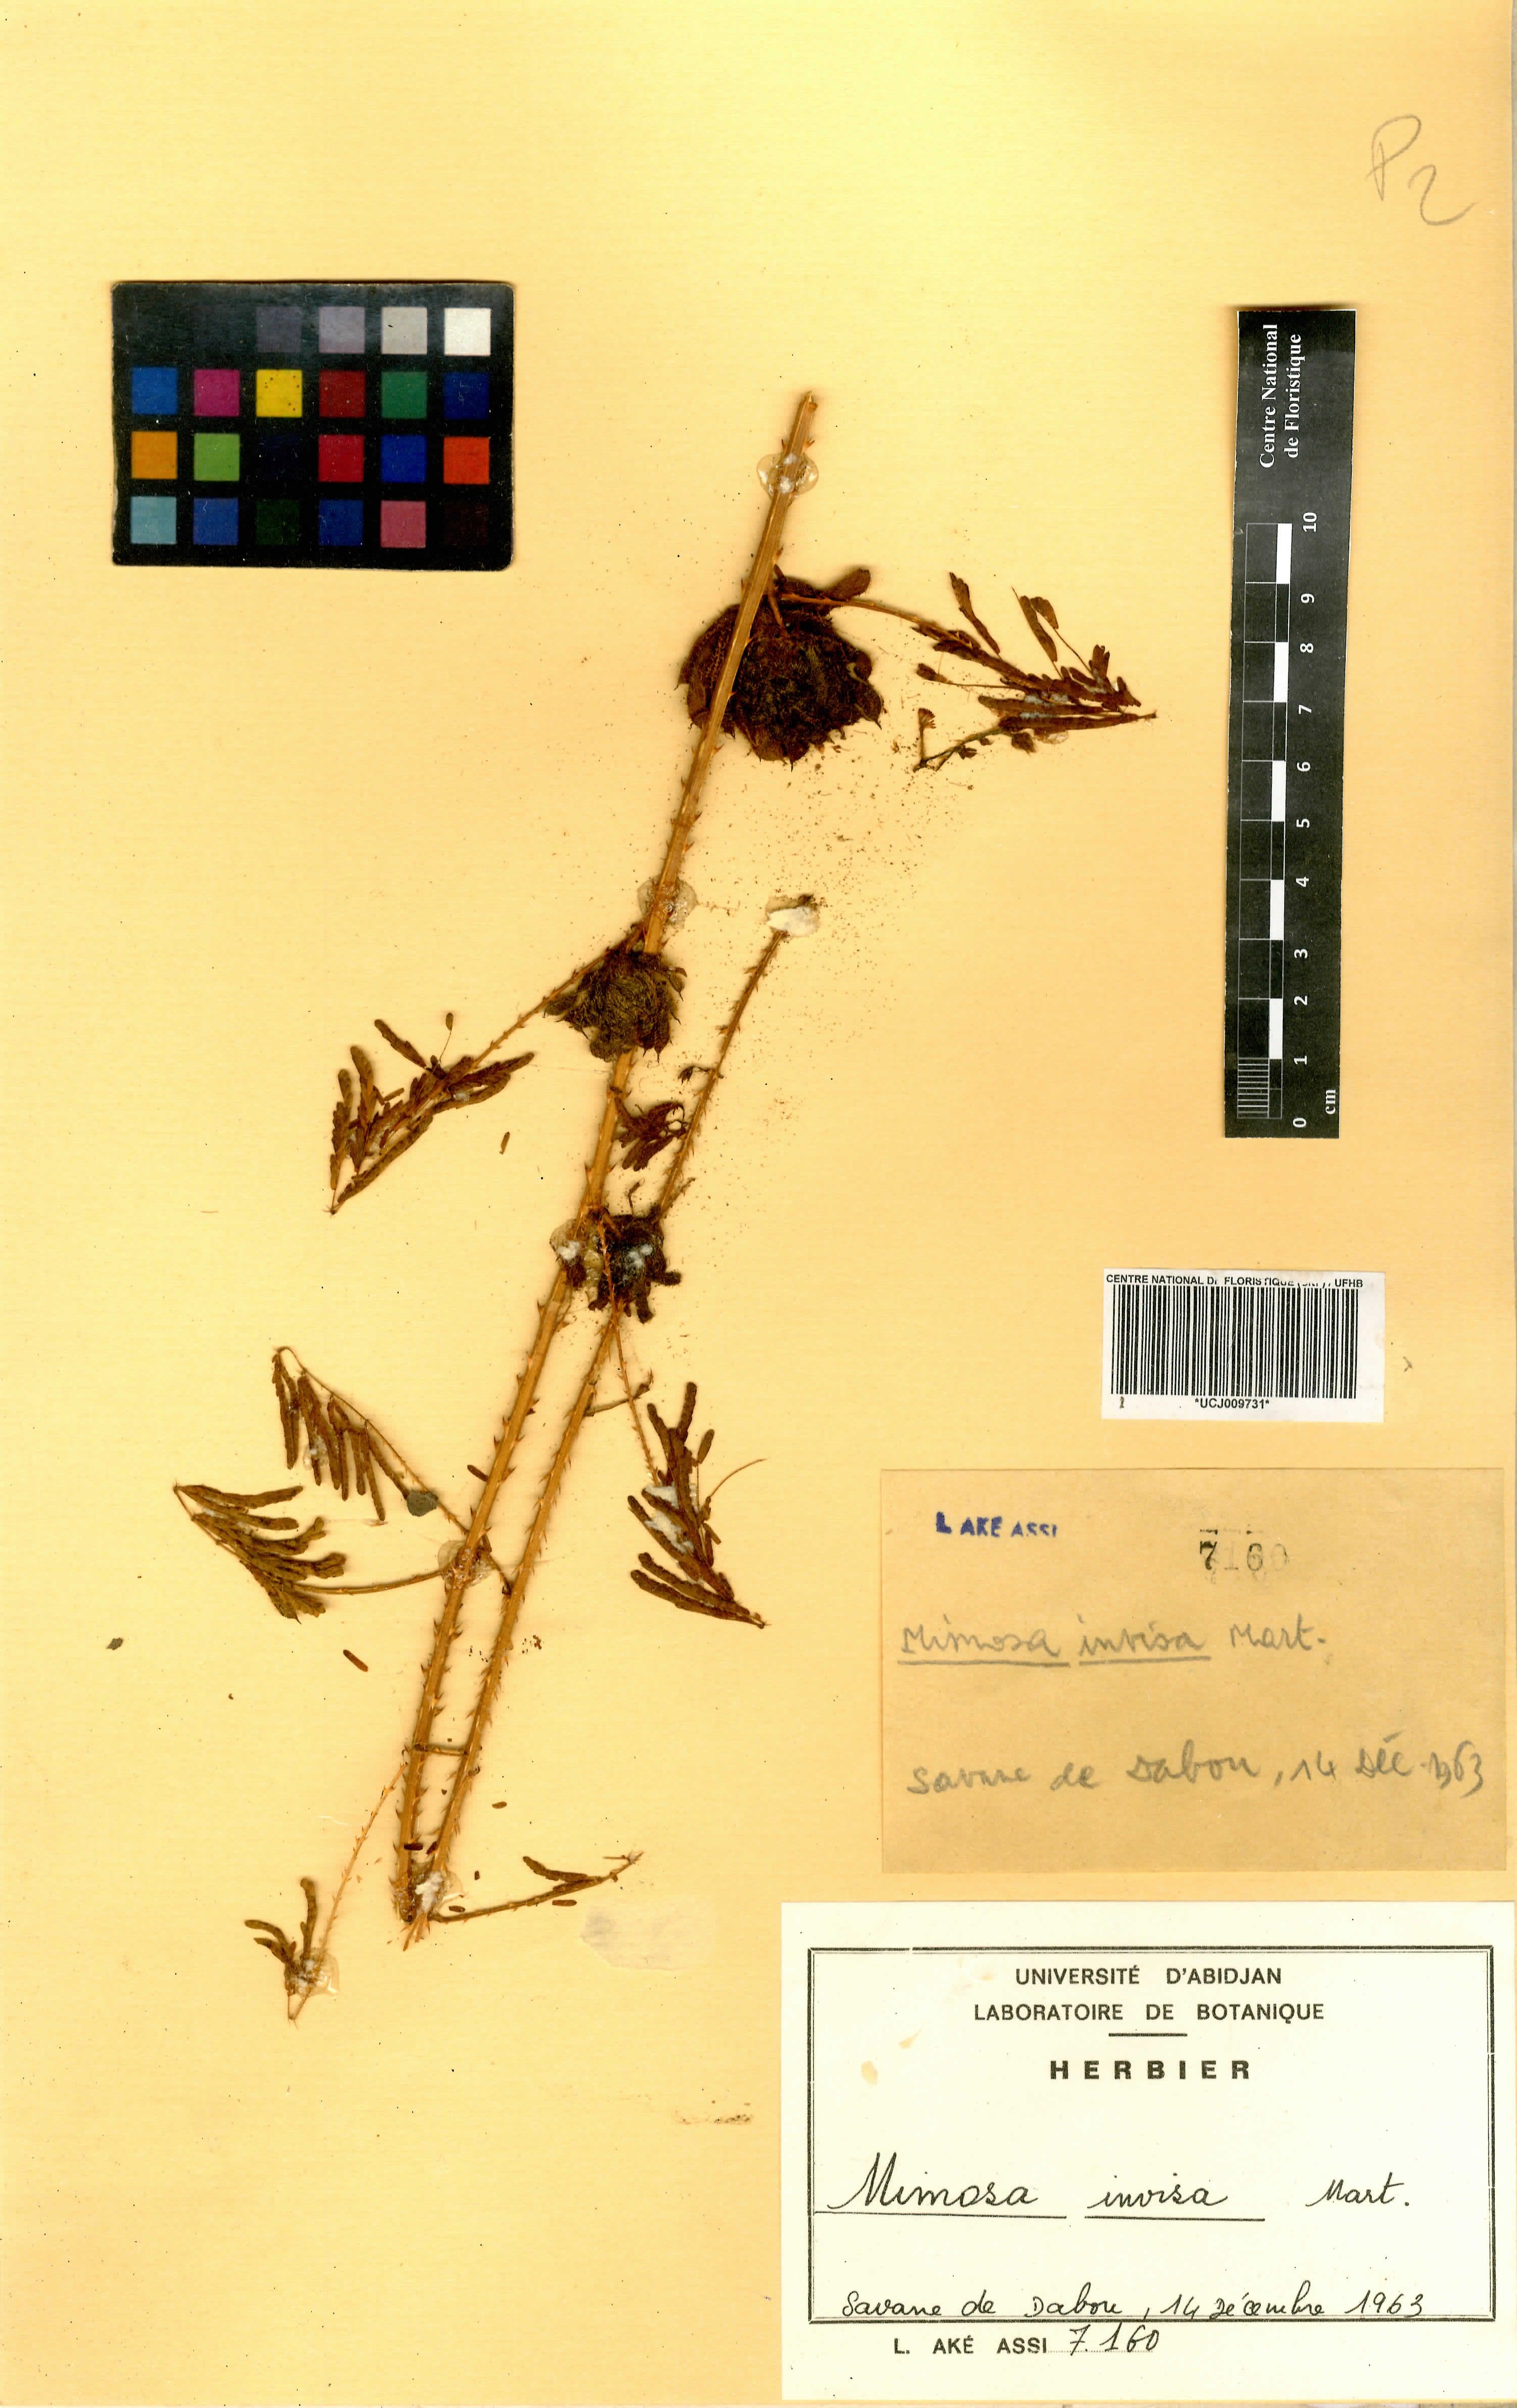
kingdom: Plantae
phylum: Tracheophyta
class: Magnoliopsida
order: Fabales
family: Fabaceae
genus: Mimosa
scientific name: Mimosa diplotricha
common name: Giant sensitive-plant
